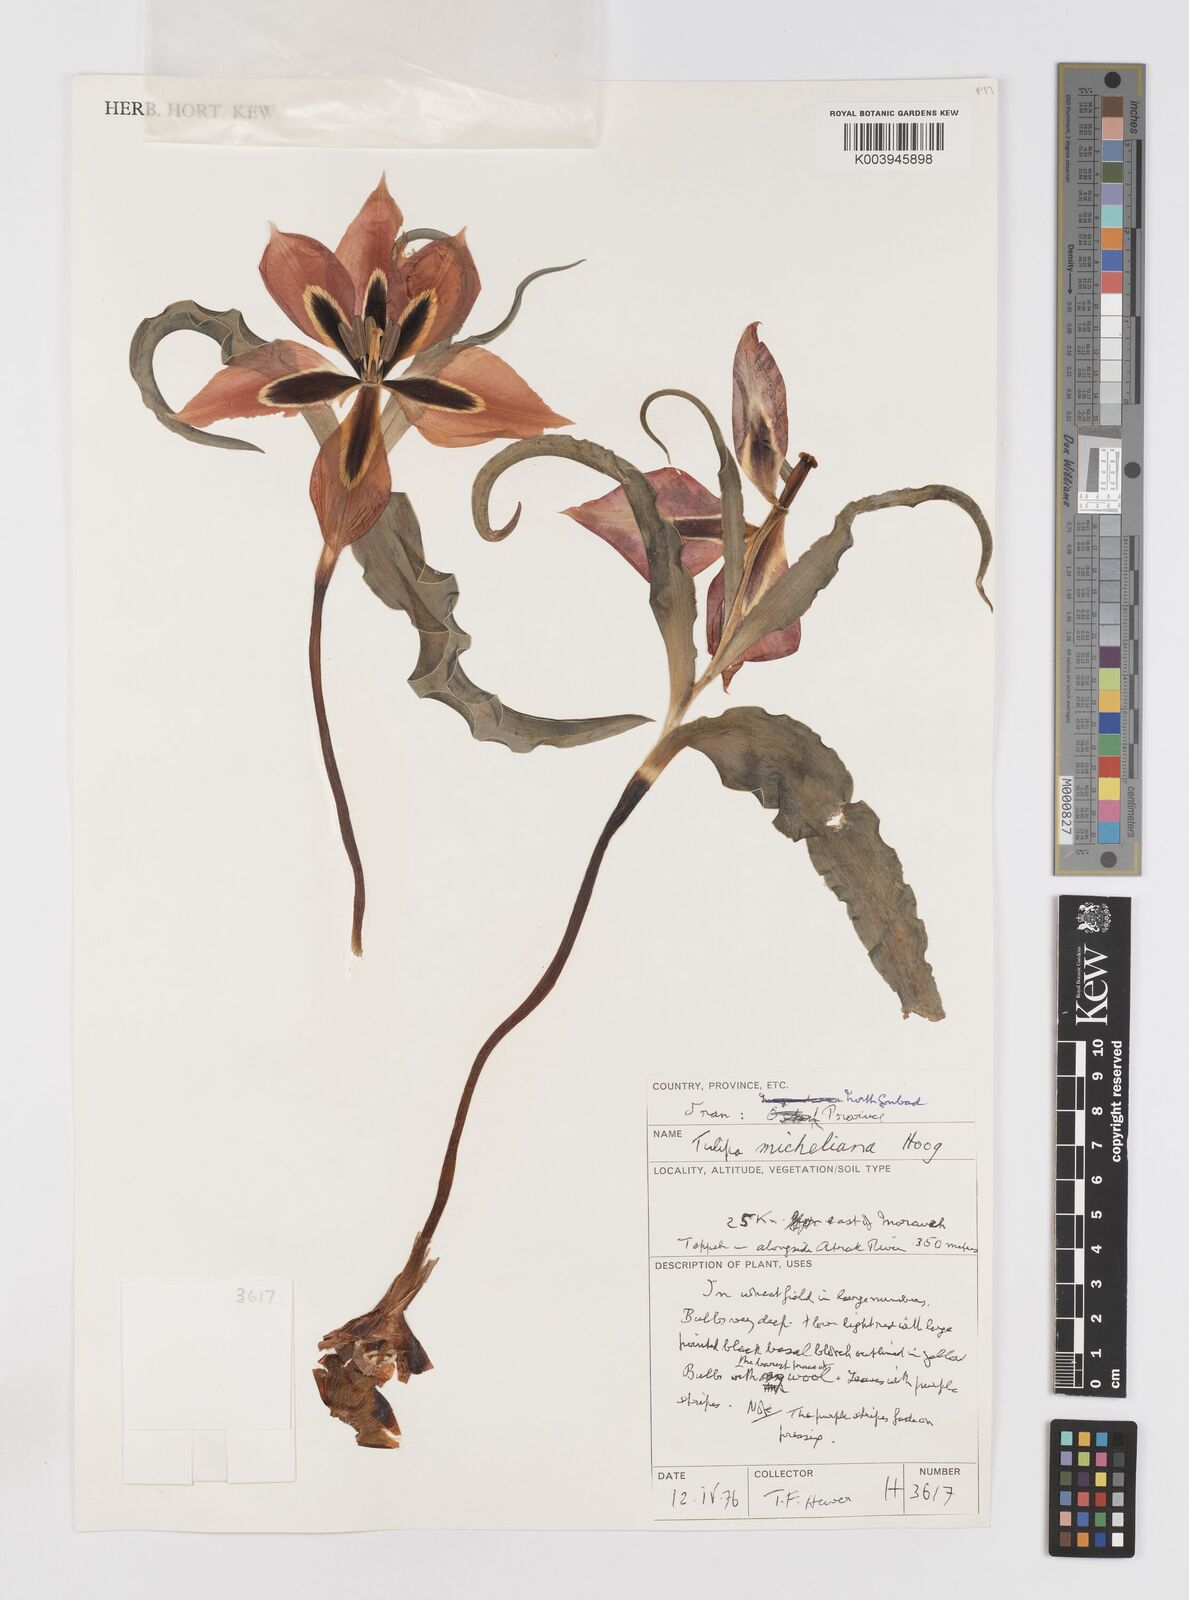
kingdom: Plantae
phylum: Tracheophyta
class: Liliopsida
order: Liliales
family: Liliaceae
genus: Tulipa
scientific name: Tulipa undulatifolia
